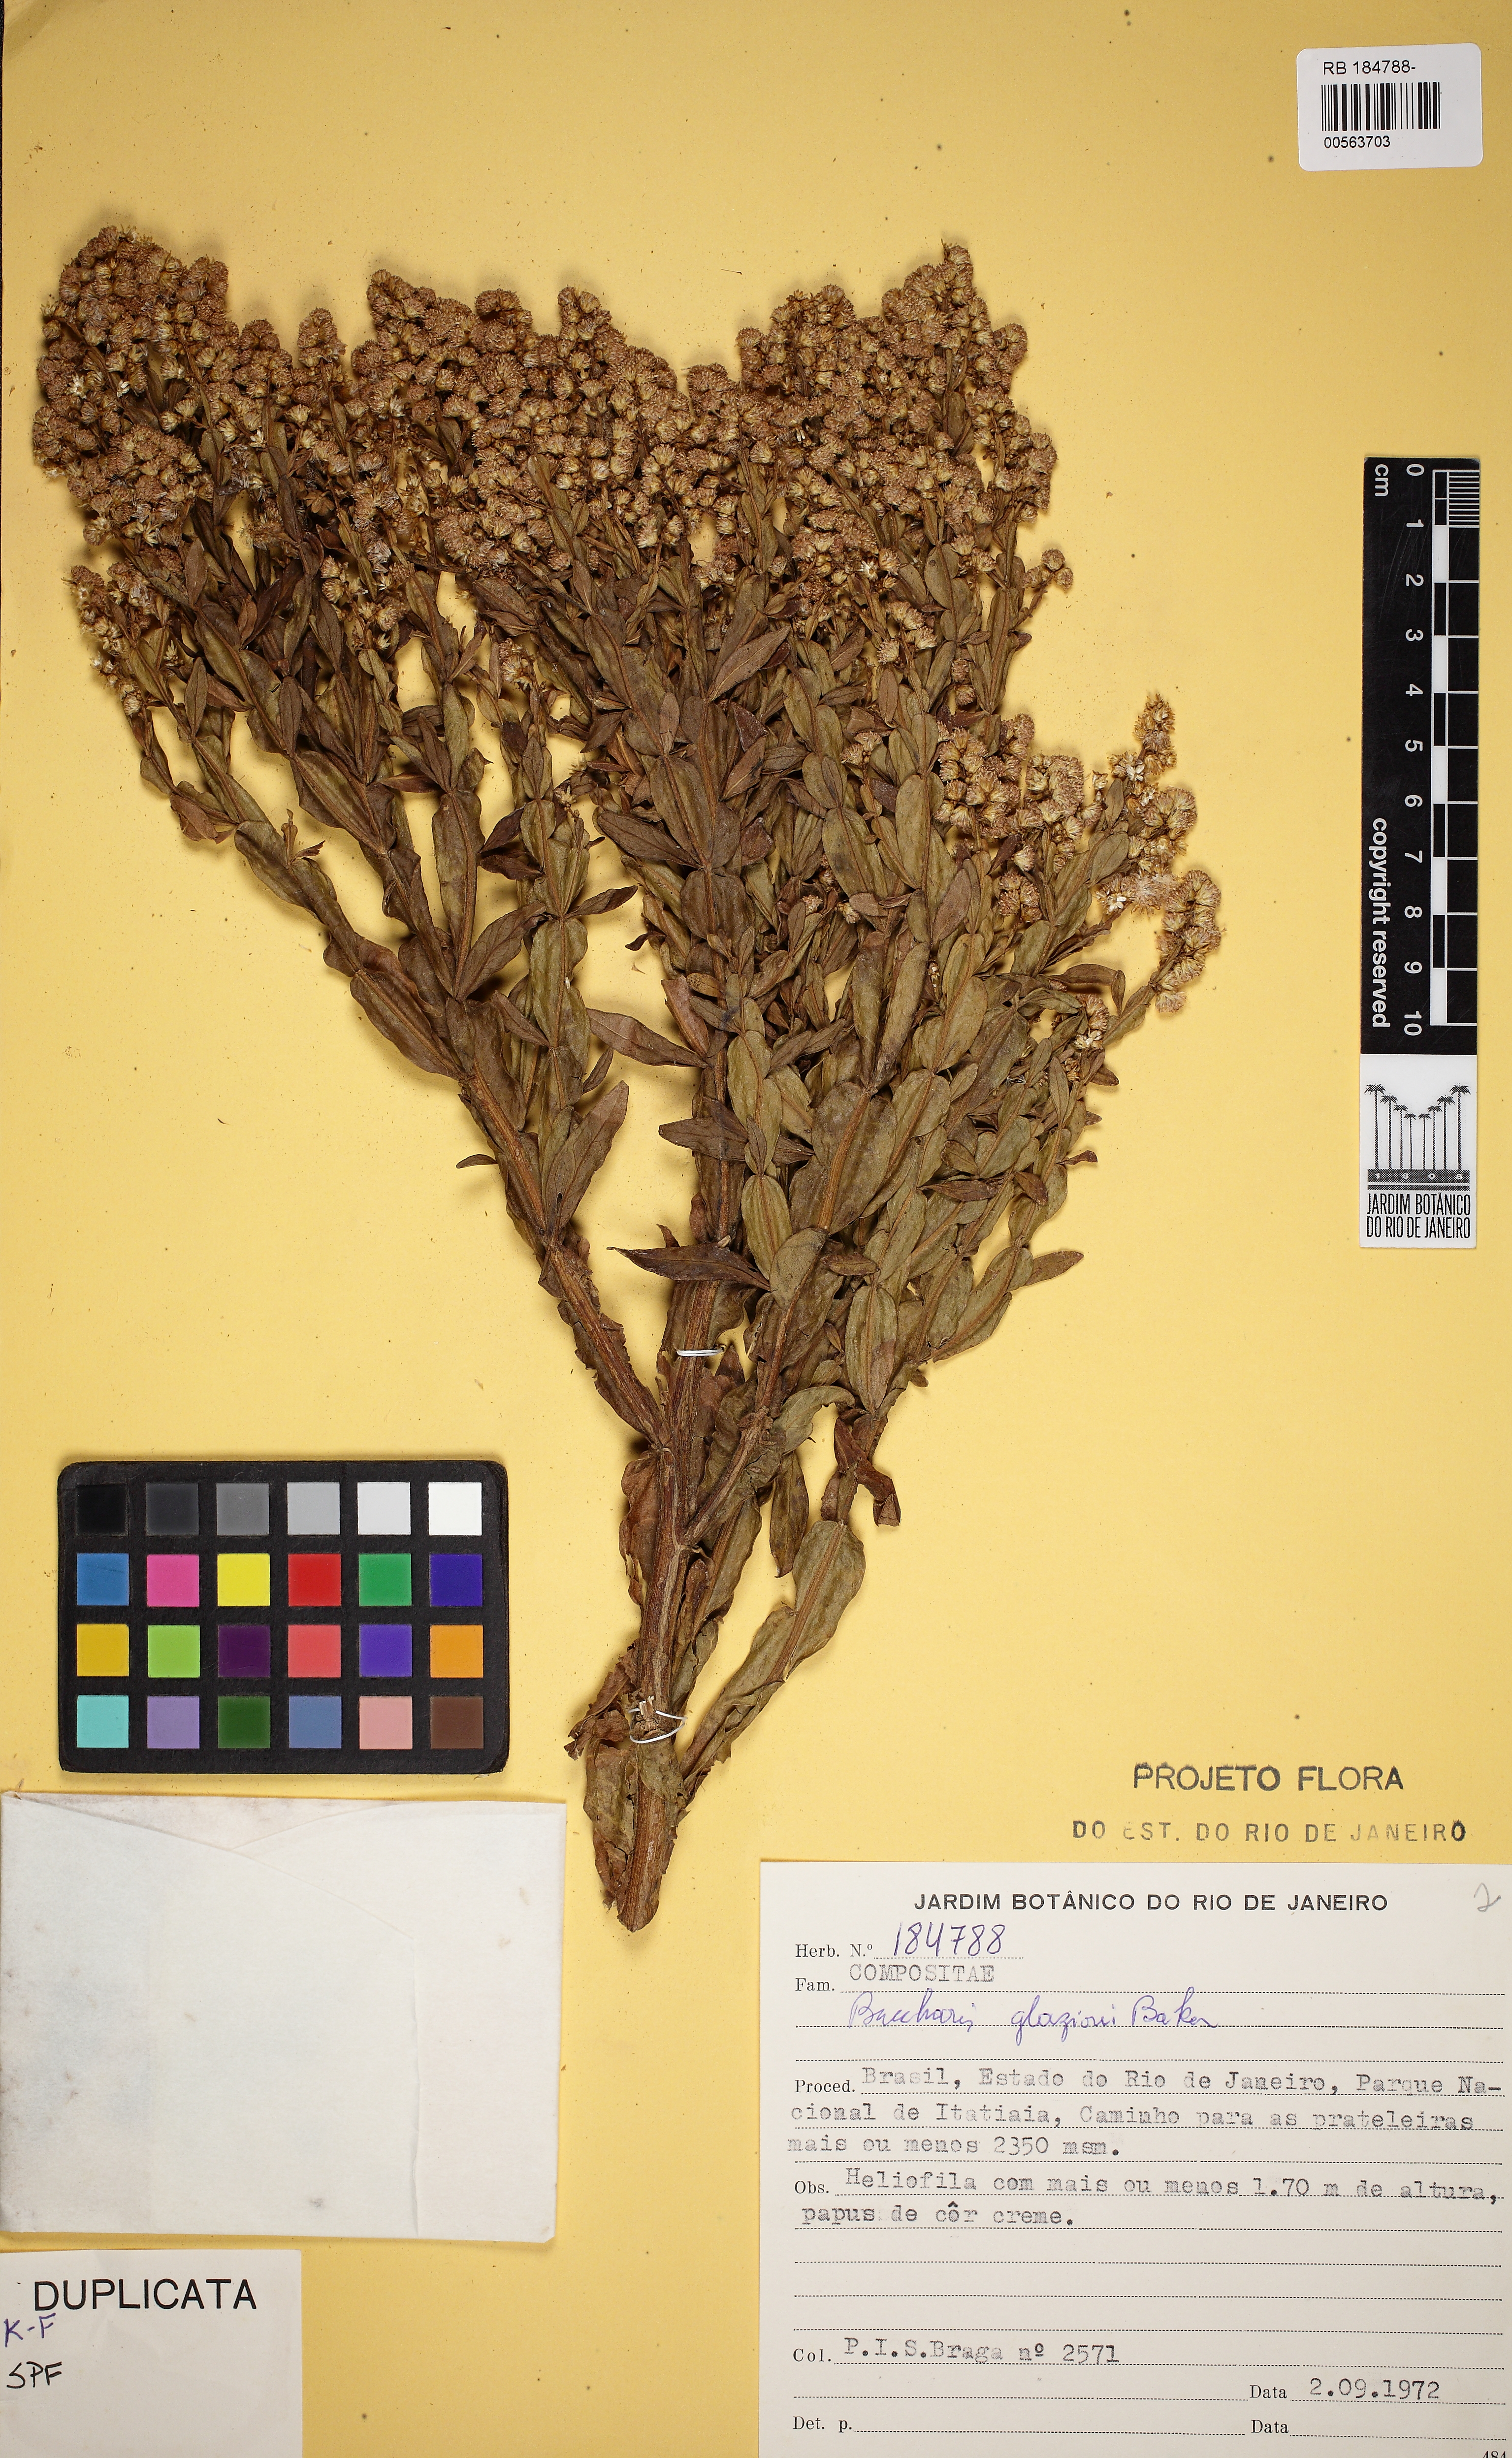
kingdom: Plantae
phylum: Tracheophyta
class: Magnoliopsida
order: Asterales
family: Asteraceae
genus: Baccharis
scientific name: Baccharis glaziovii
